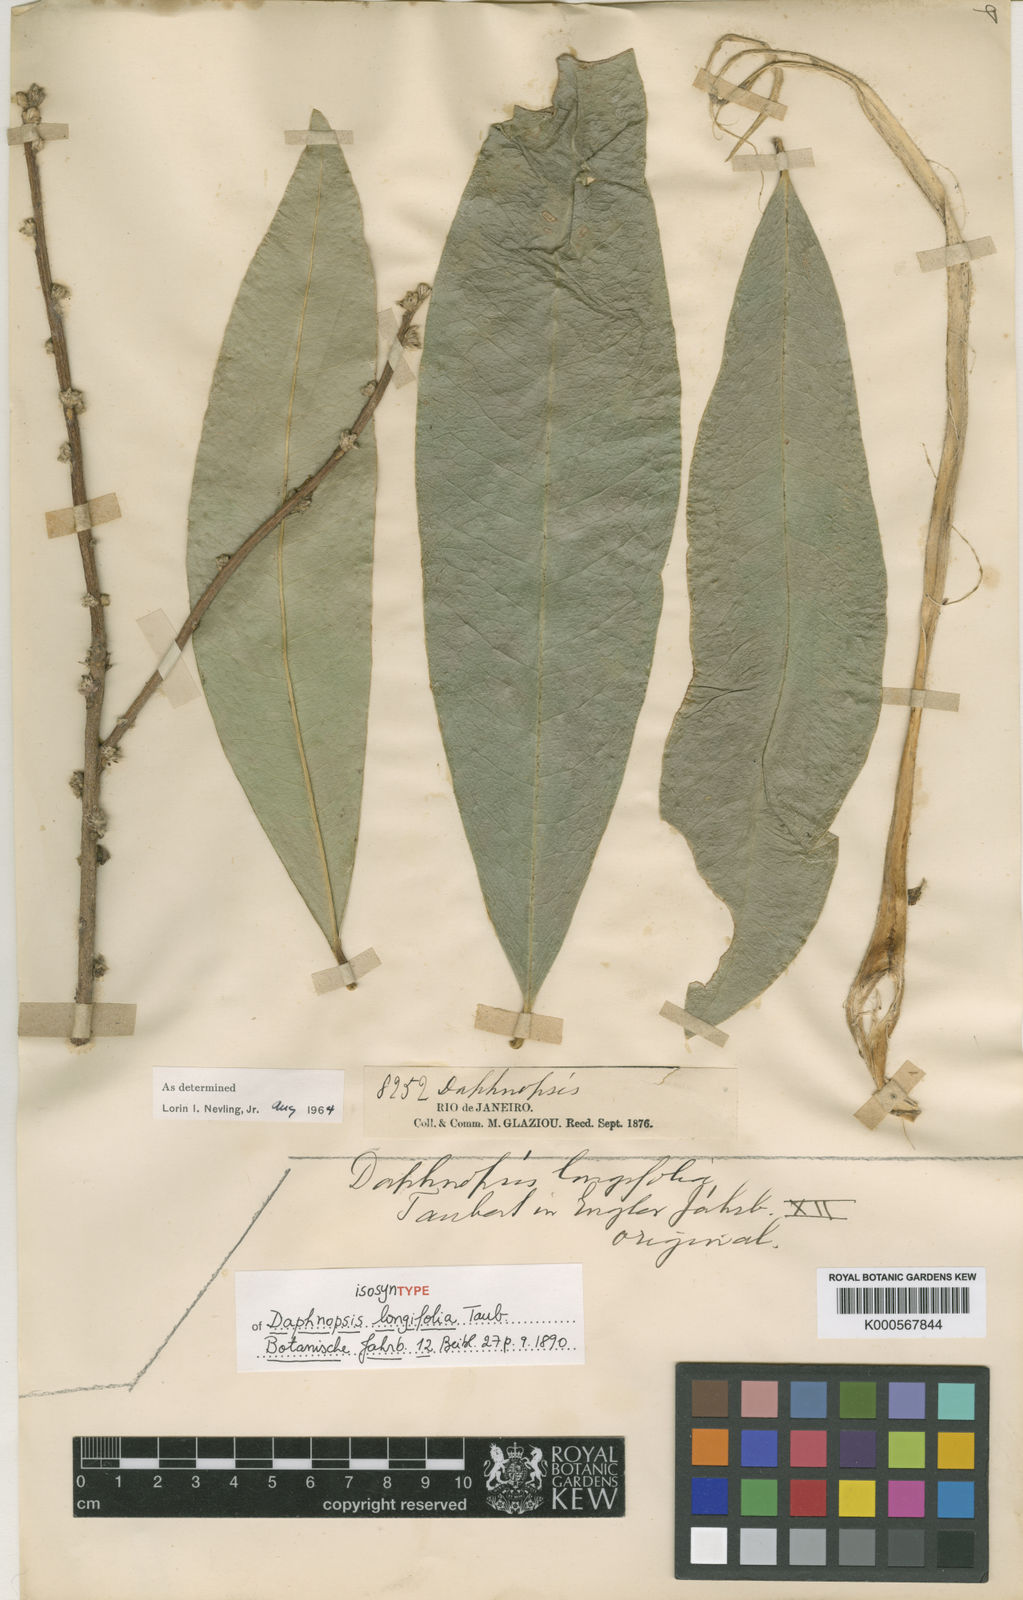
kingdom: Plantae
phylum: Tracheophyta
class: Magnoliopsida
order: Malvales
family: Thymelaeaceae
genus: Daphnopsis
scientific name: Daphnopsis fasciculata
